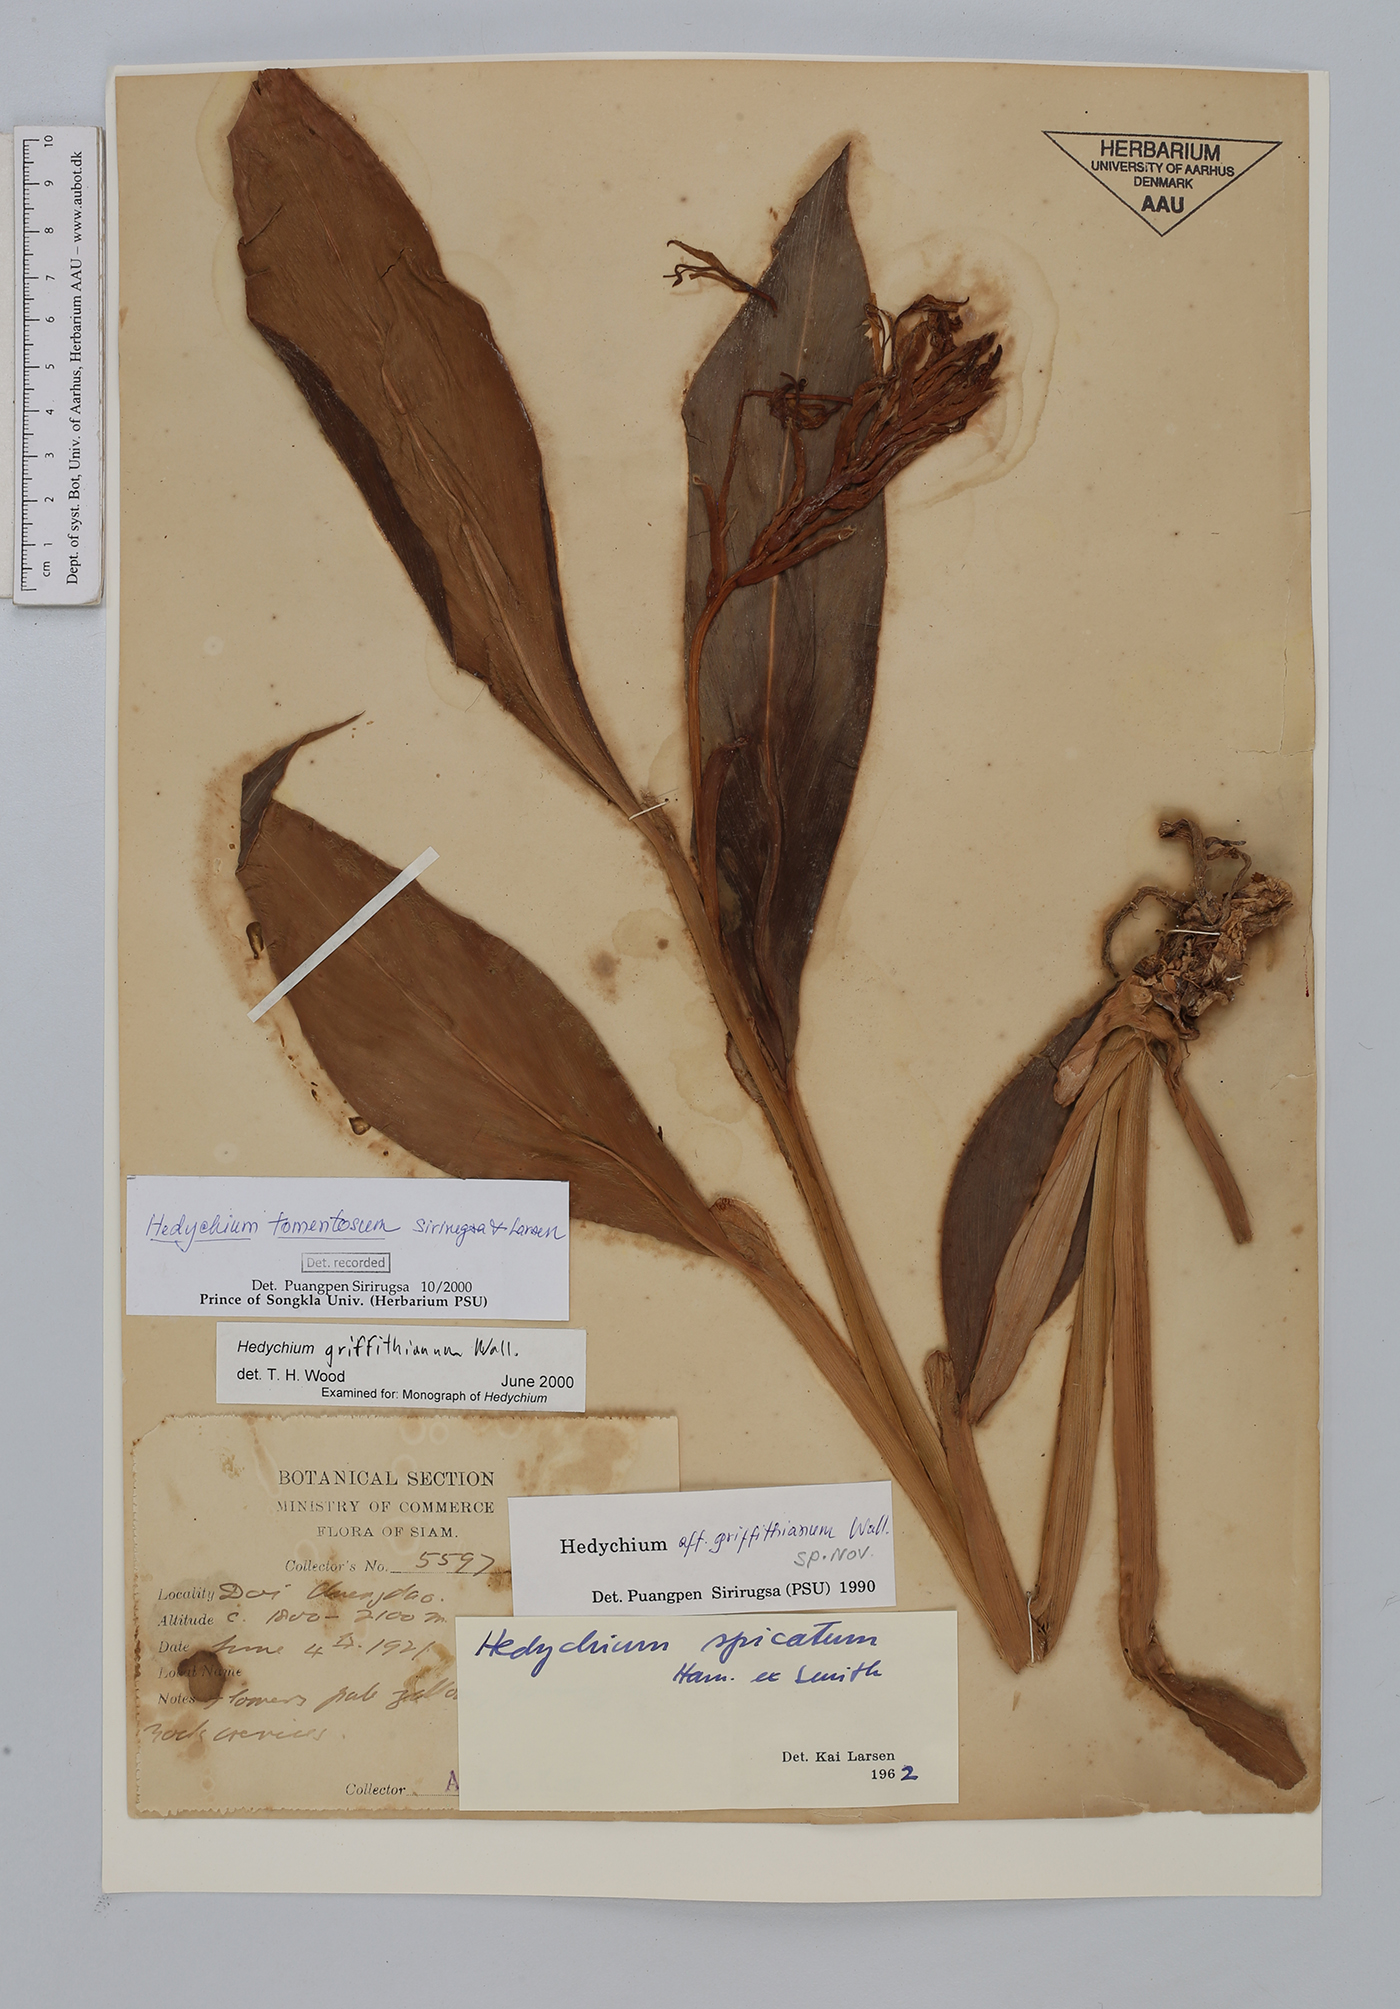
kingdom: Plantae
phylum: Tracheophyta
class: Liliopsida
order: Zingiberales
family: Zingiberaceae
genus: Hedychium
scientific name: Hedychium tomentosum
